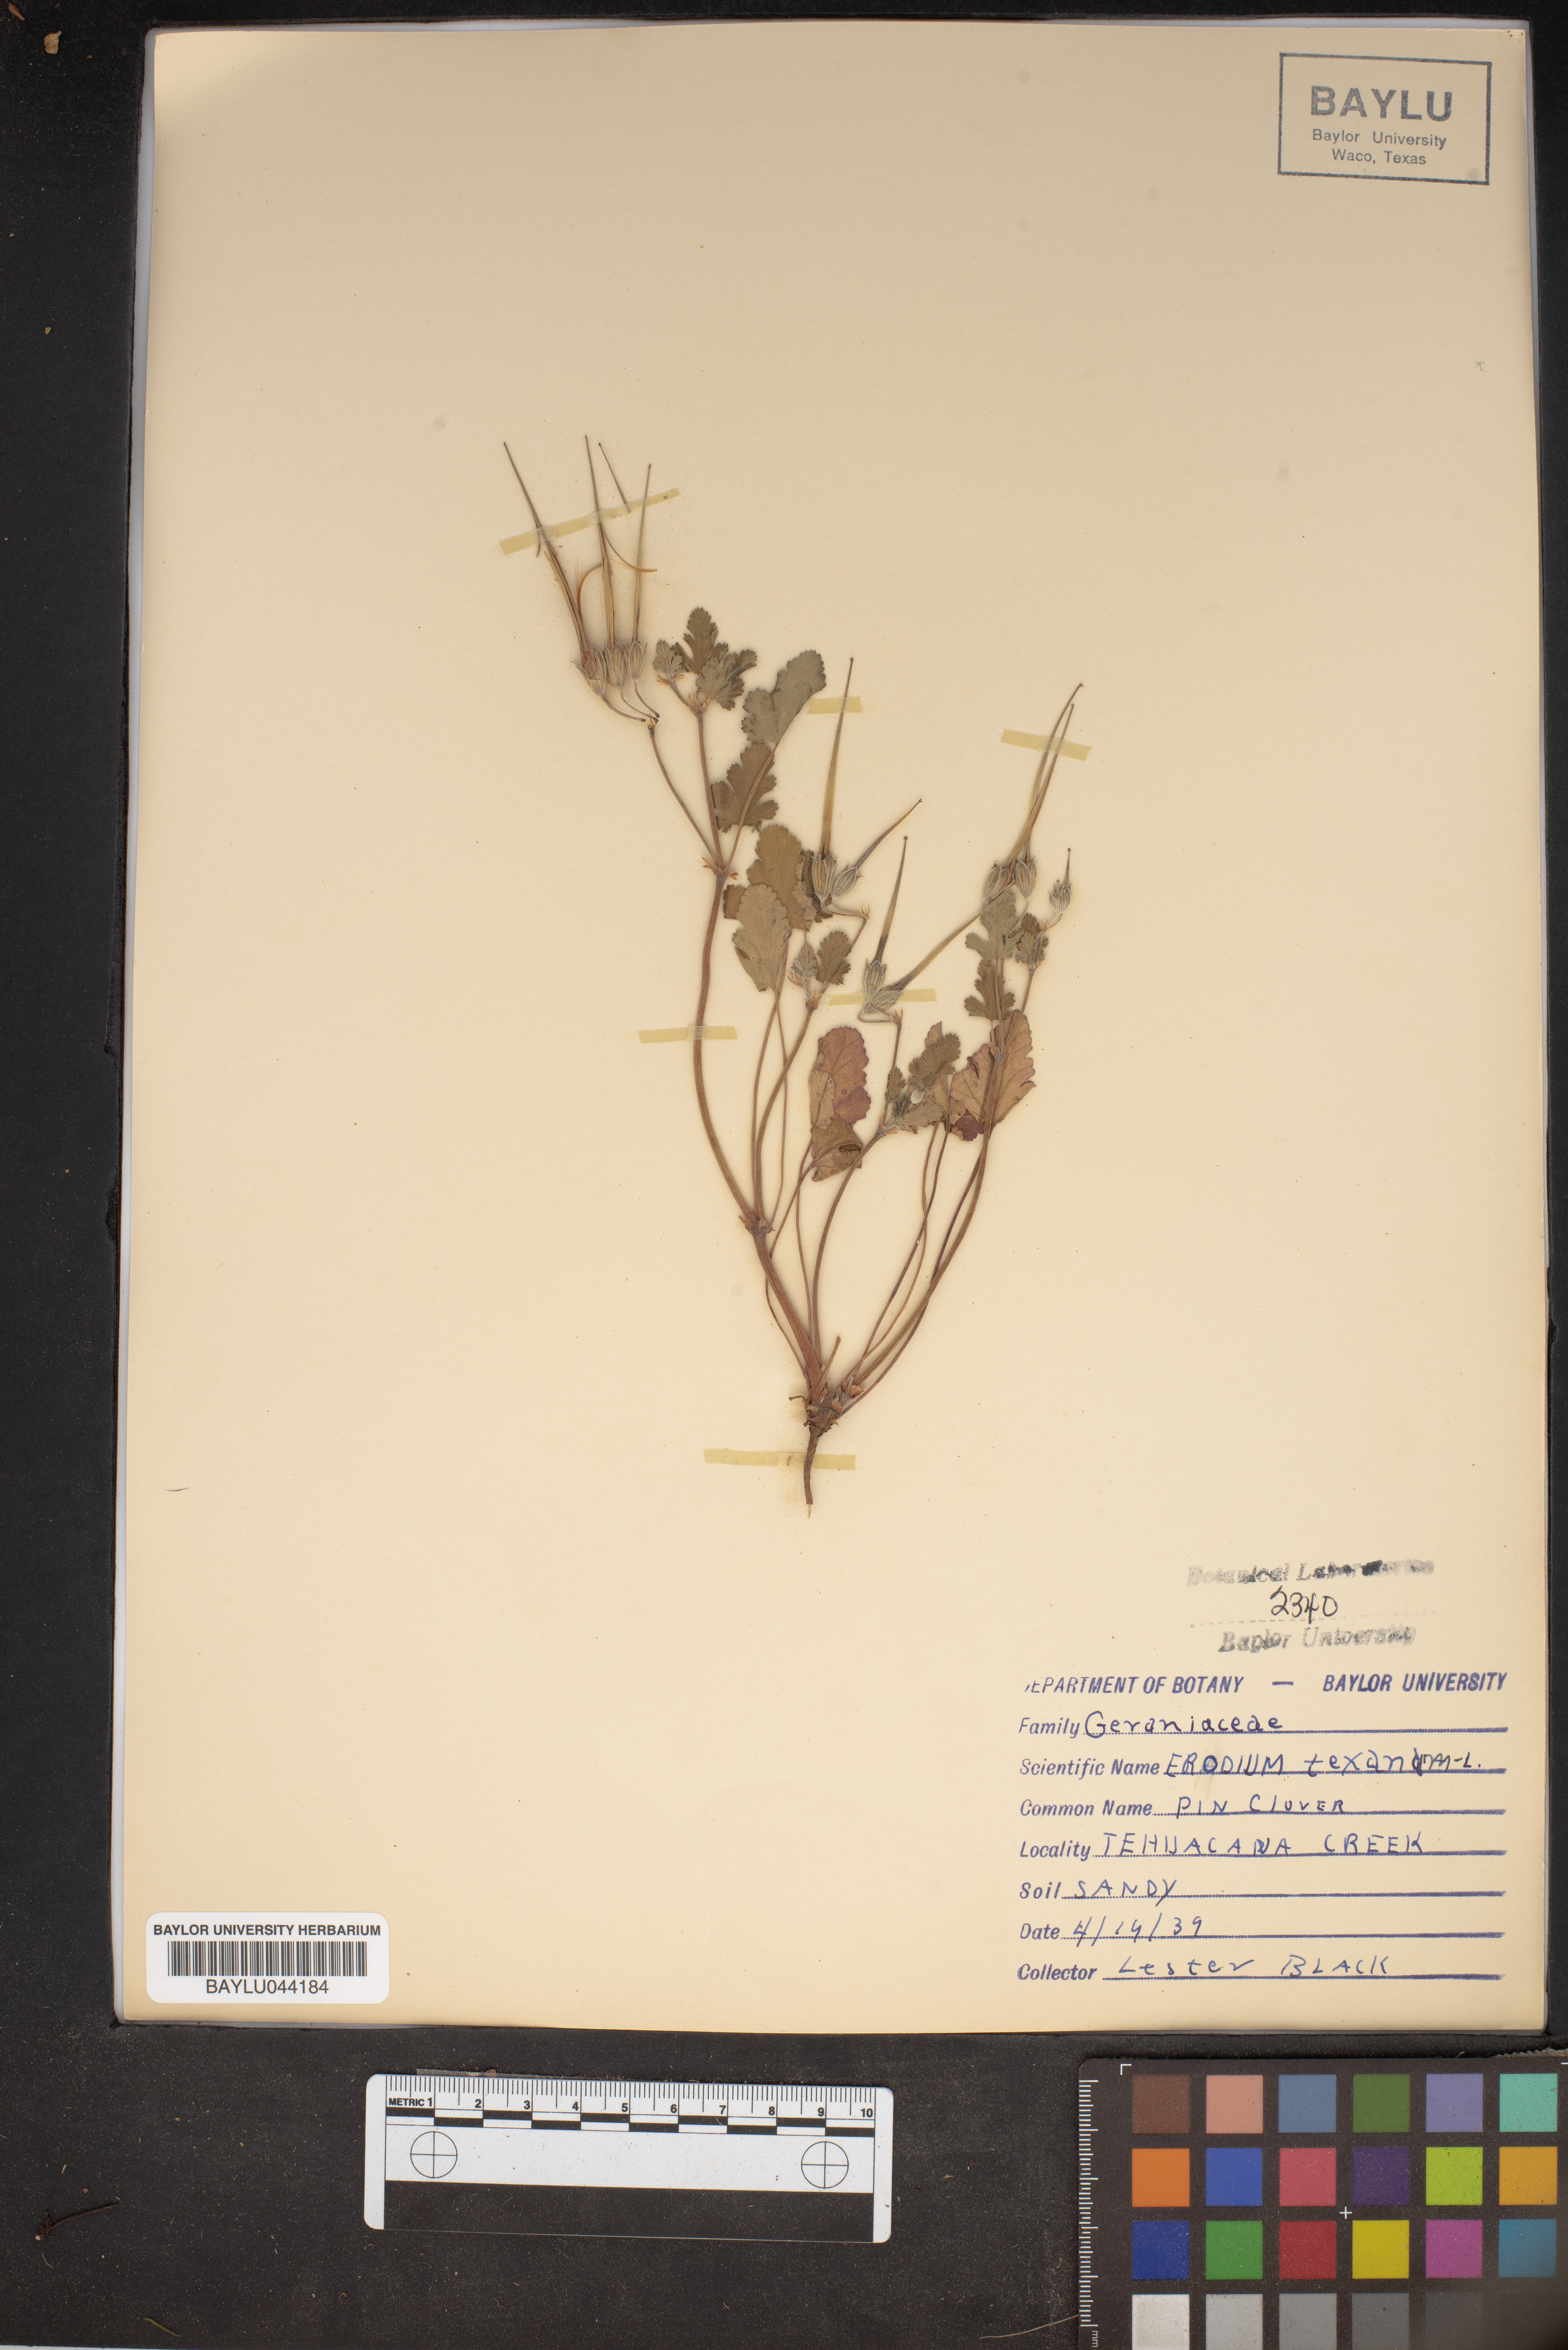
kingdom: Plantae
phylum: Tracheophyta
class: Magnoliopsida
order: Geraniales
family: Geraniaceae
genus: Erodium
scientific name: Erodium texanum
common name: Texas stork's-bill
